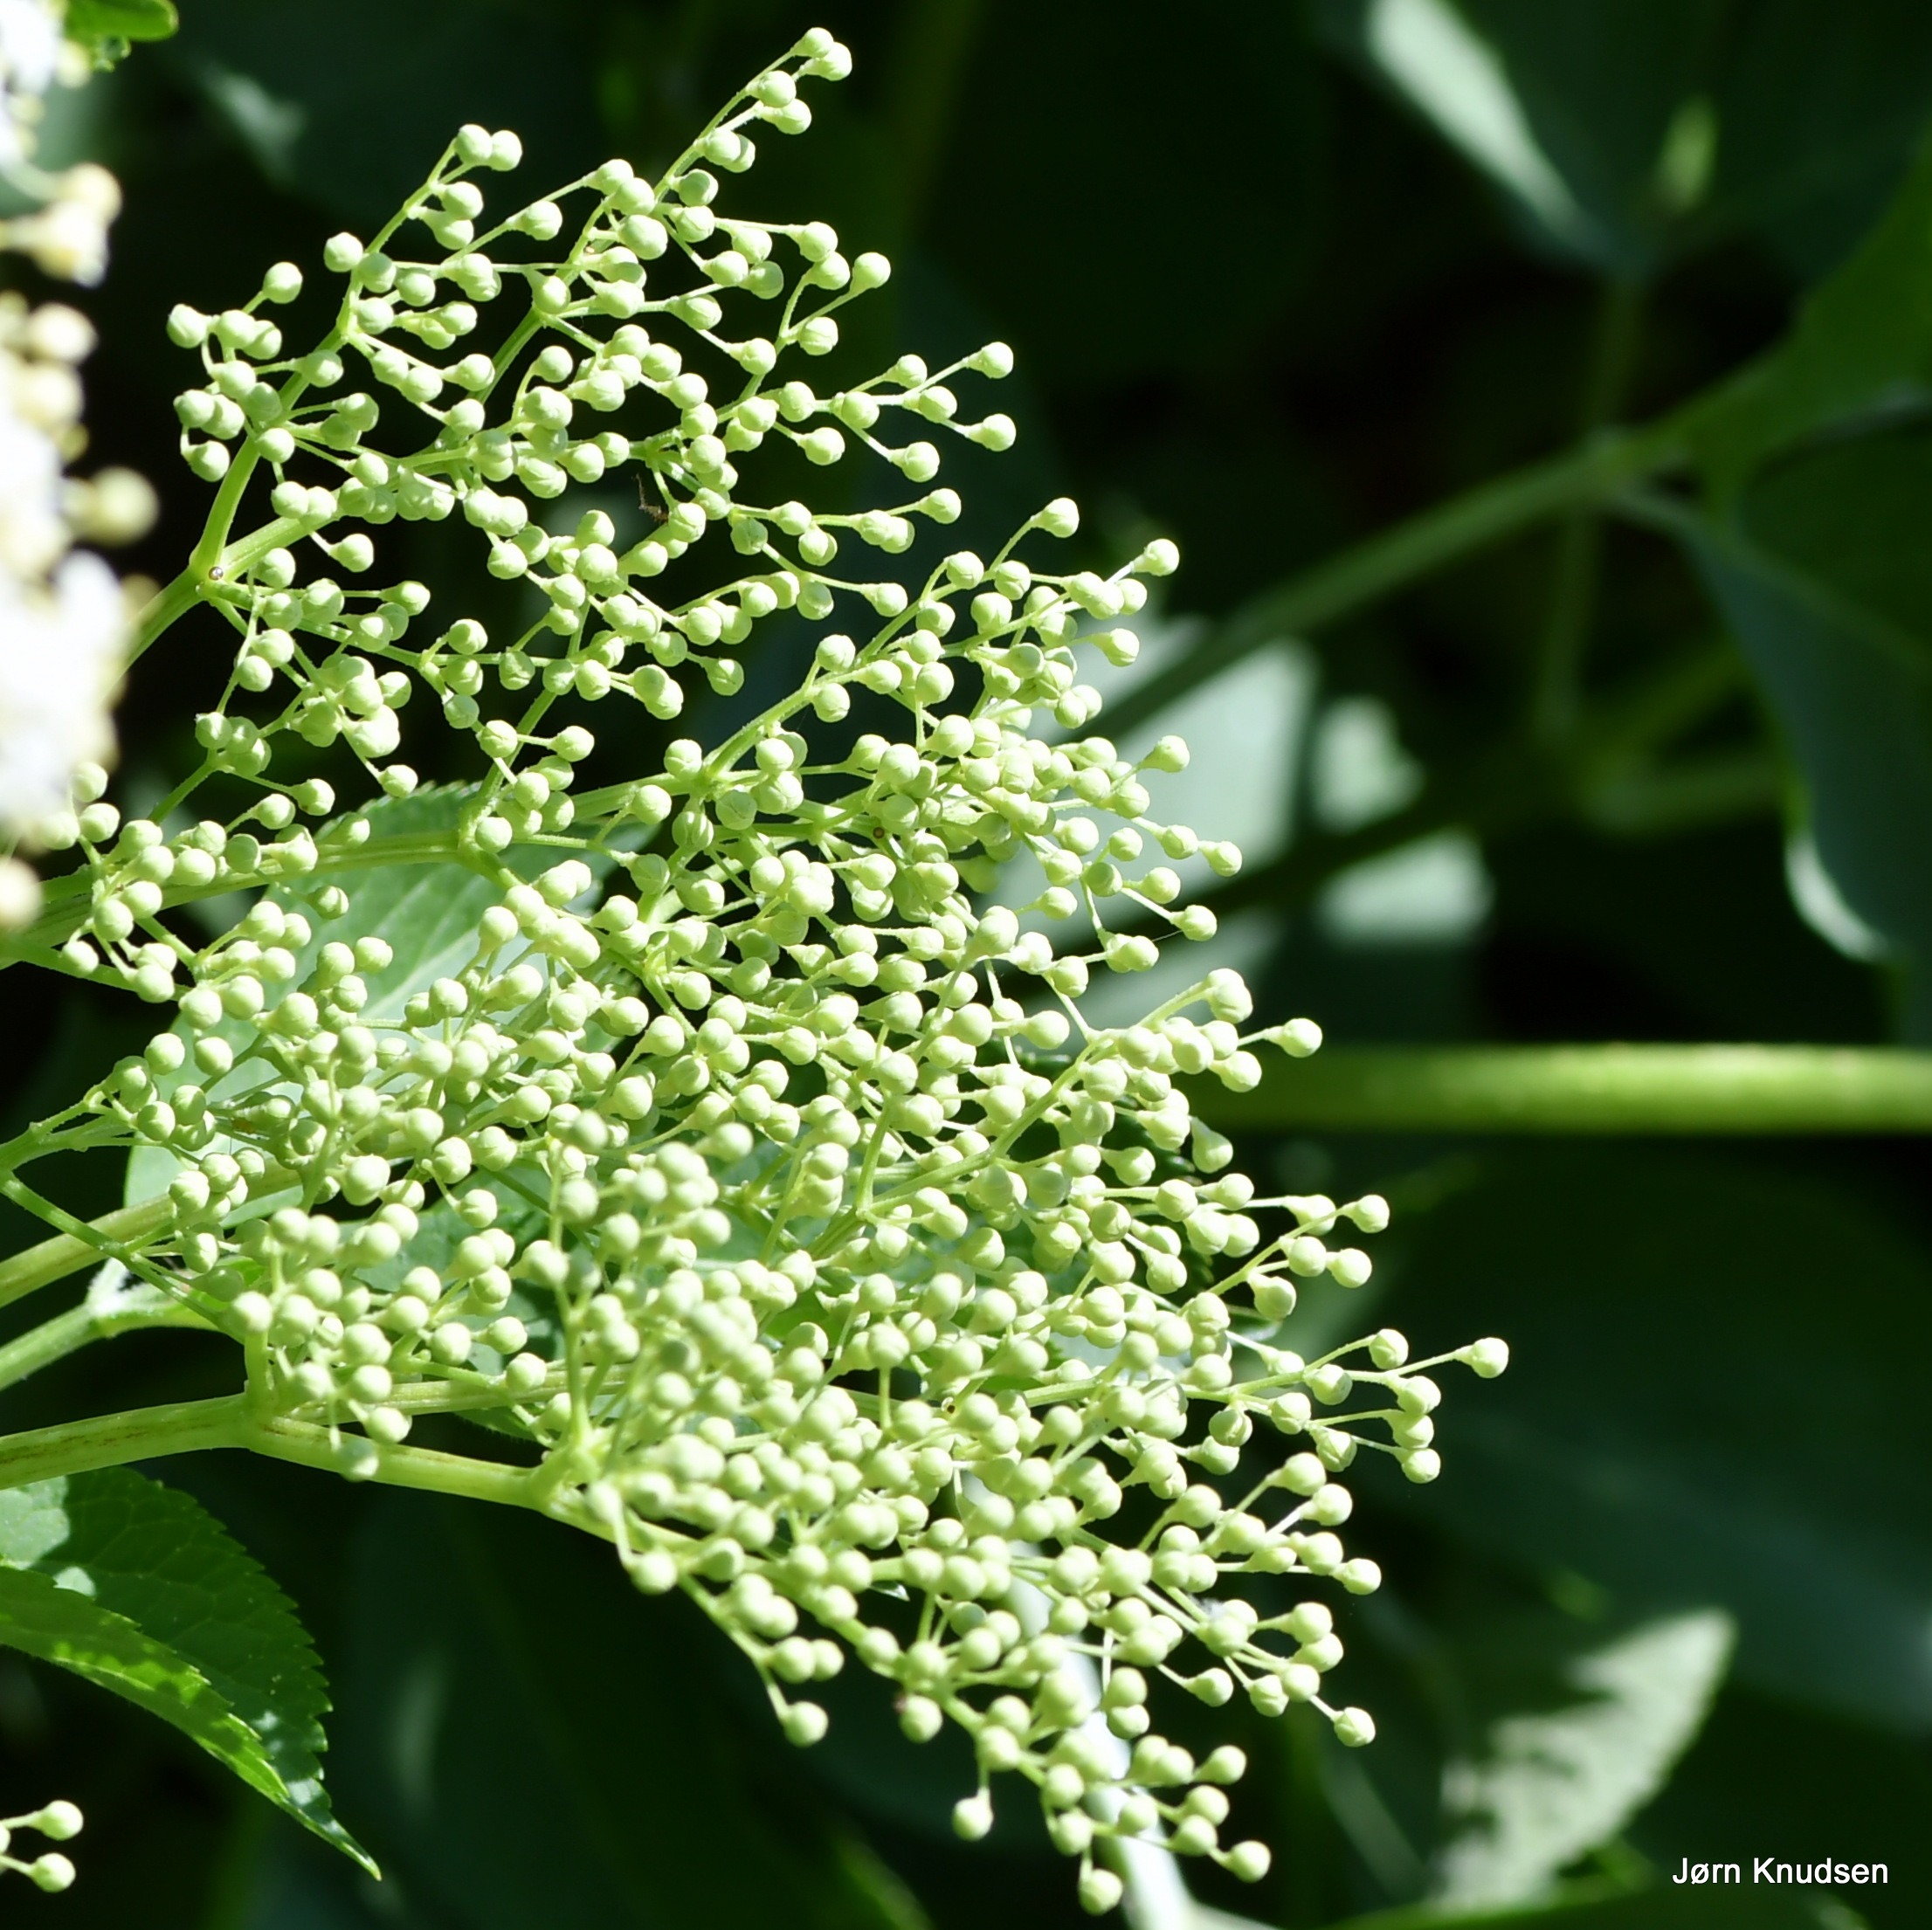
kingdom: Plantae
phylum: Tracheophyta
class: Magnoliopsida
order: Dipsacales
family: Viburnaceae
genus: Sambucus
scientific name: Sambucus nigra
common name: Almindelig hyld
